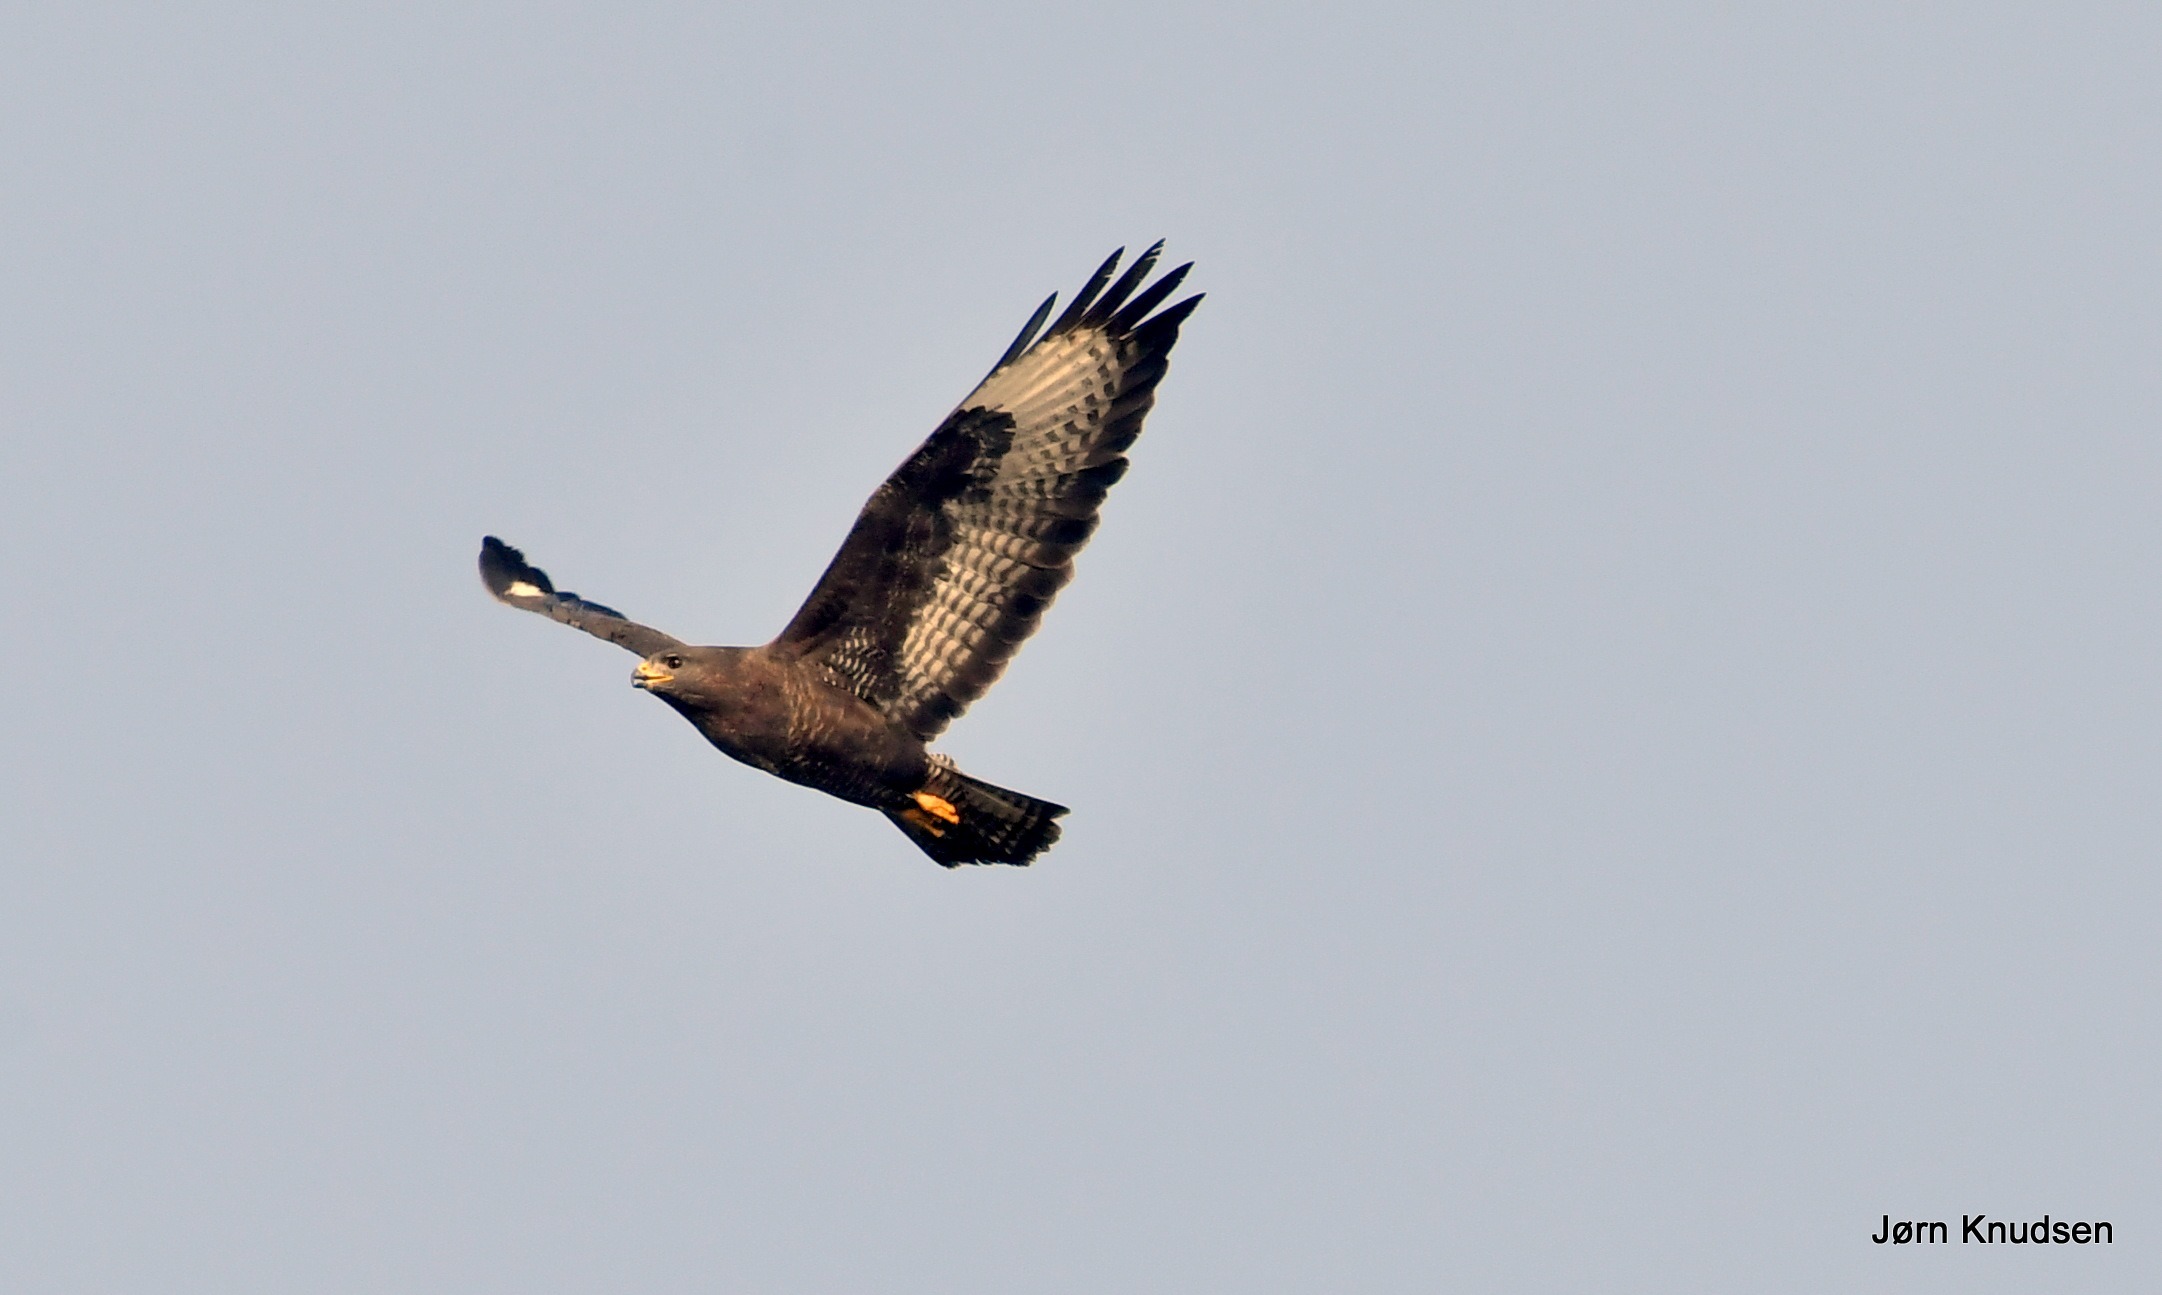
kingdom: Animalia
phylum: Chordata
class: Aves
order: Accipitriformes
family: Accipitridae
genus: Buteo
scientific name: Buteo buteo
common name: Musvåge
